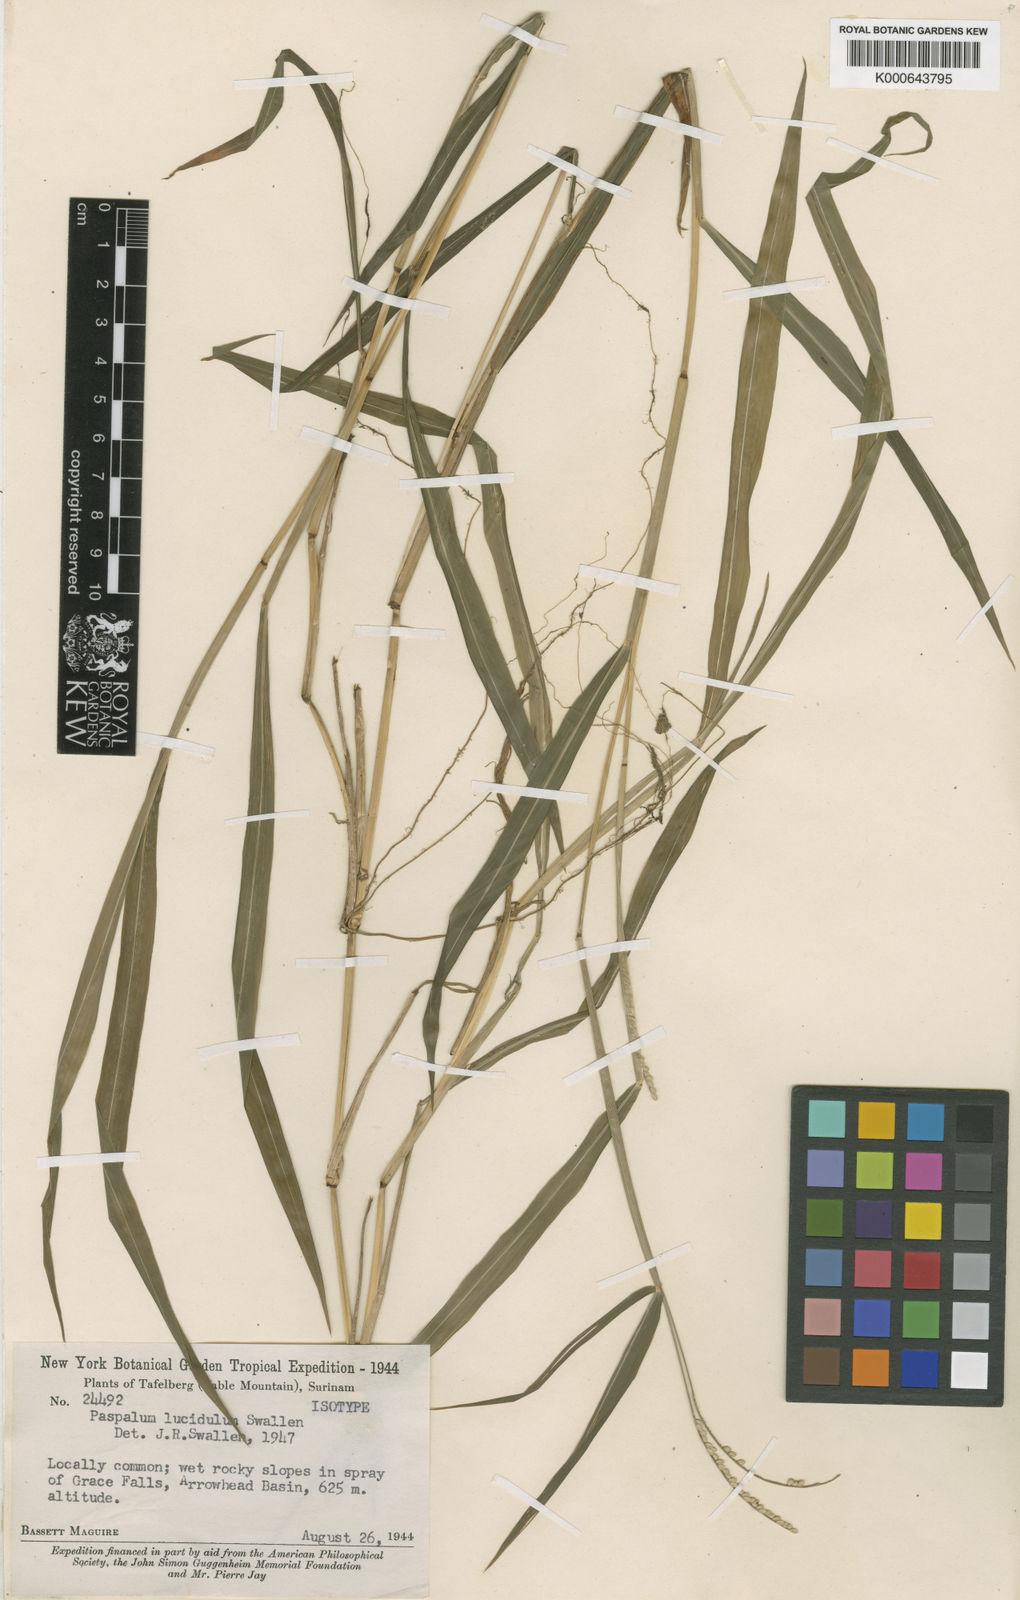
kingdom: Plantae
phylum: Tracheophyta
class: Liliopsida
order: Poales
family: Poaceae
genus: Paspalum
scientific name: Paspalum altsonii
